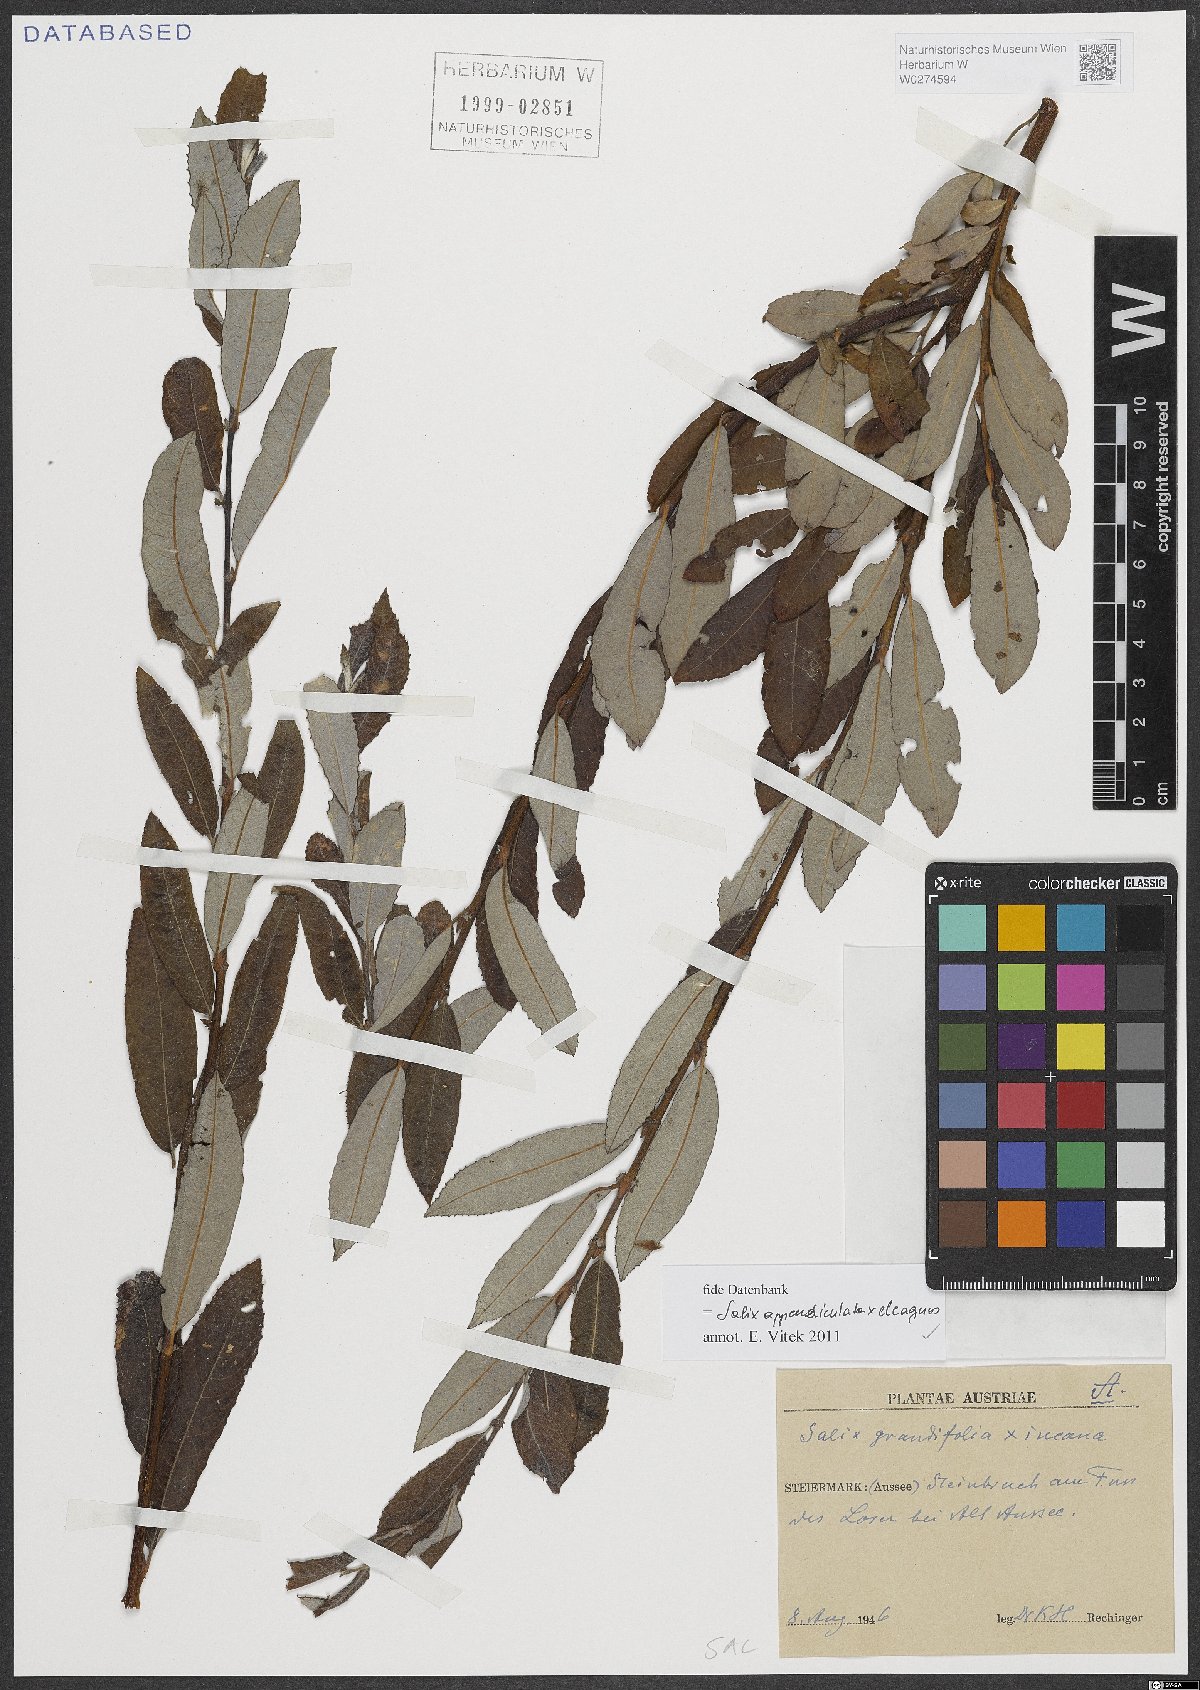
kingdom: Plantae
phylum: Tracheophyta
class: Magnoliopsida
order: Malpighiales
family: Salicaceae
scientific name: Salicaceae
